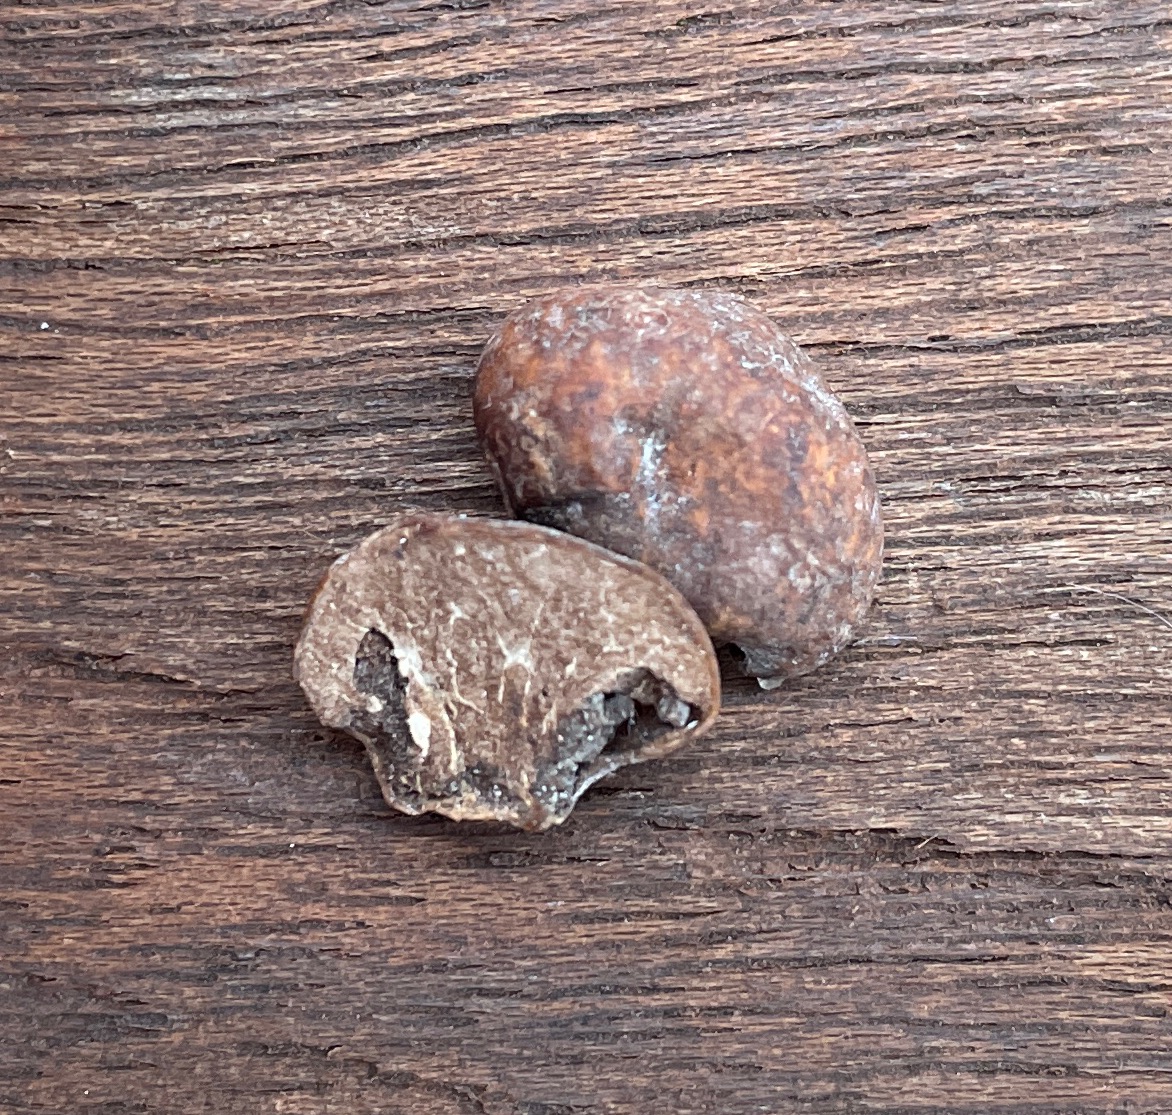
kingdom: Fungi
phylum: Ascomycota
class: Pezizomycetes
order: Pezizales
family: Tuberaceae
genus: Tuber
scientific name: Tuber rufum
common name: rødbrun trøffel
